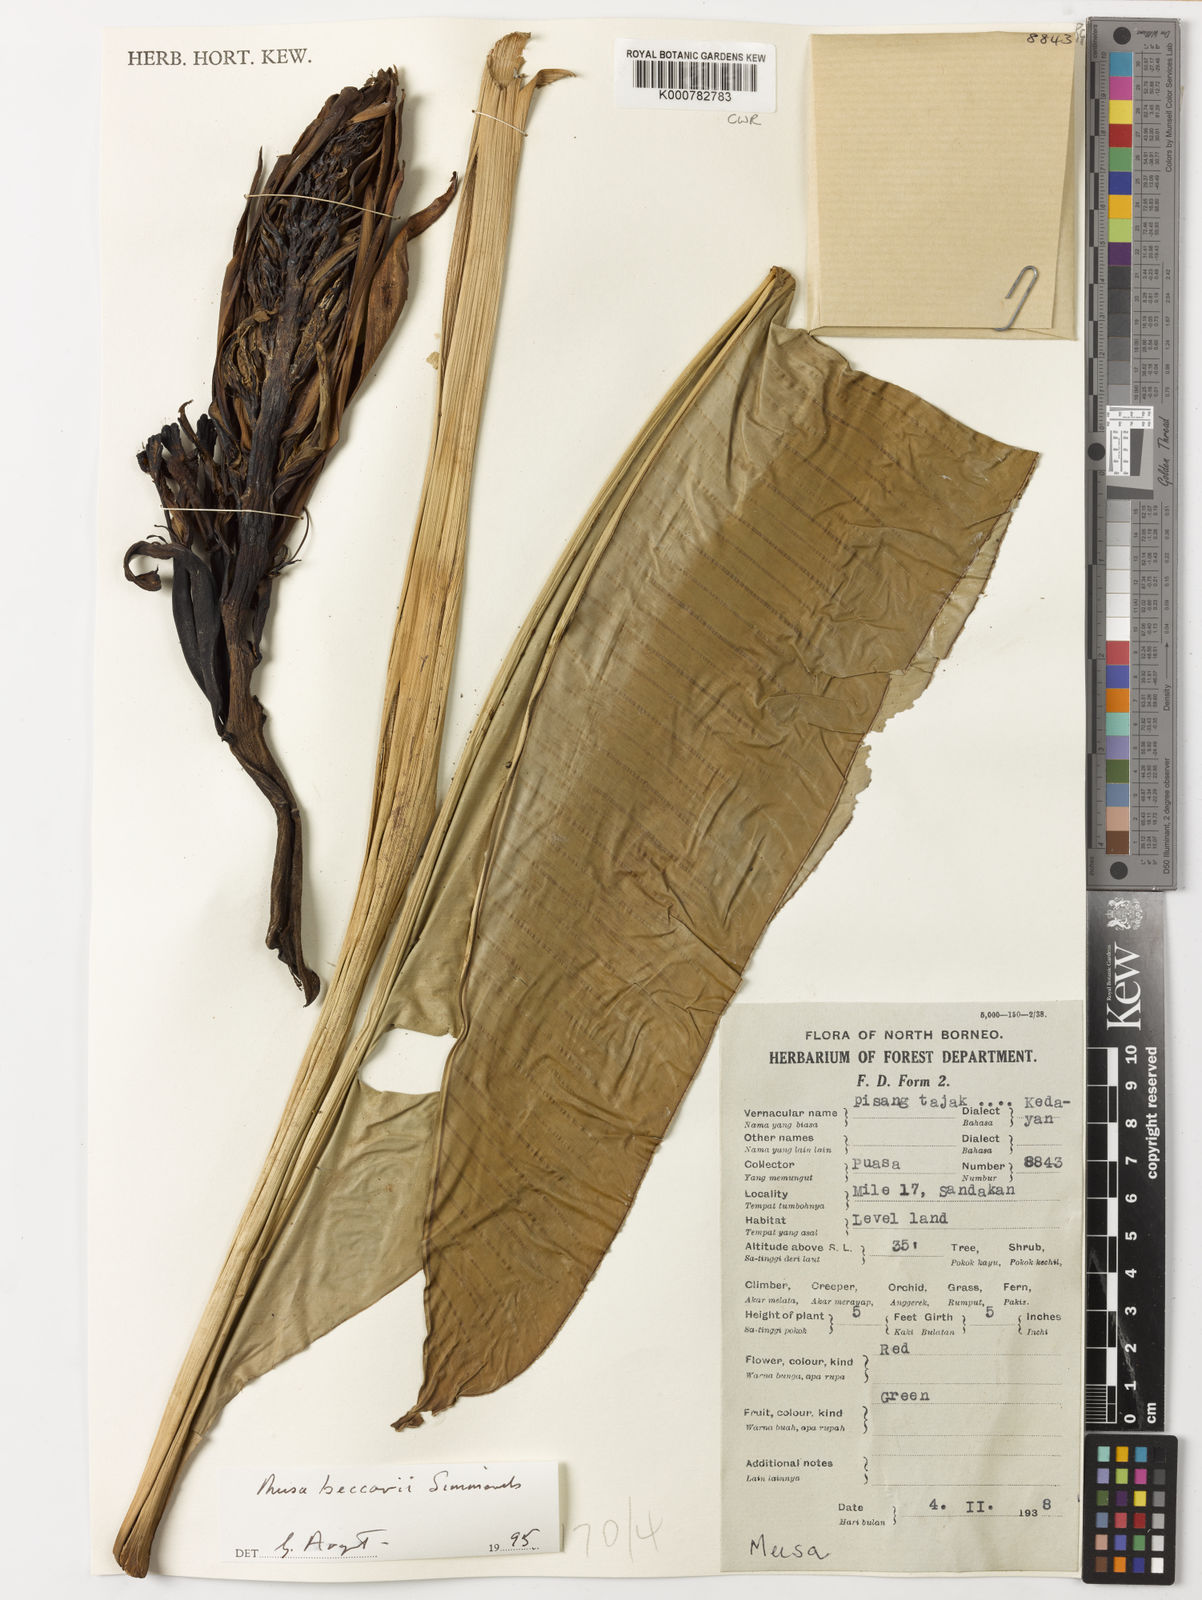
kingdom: Plantae
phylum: Tracheophyta
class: Liliopsida
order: Zingiberales
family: Musaceae
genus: Musa
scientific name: Musa beccarii
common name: Pisang tajak
